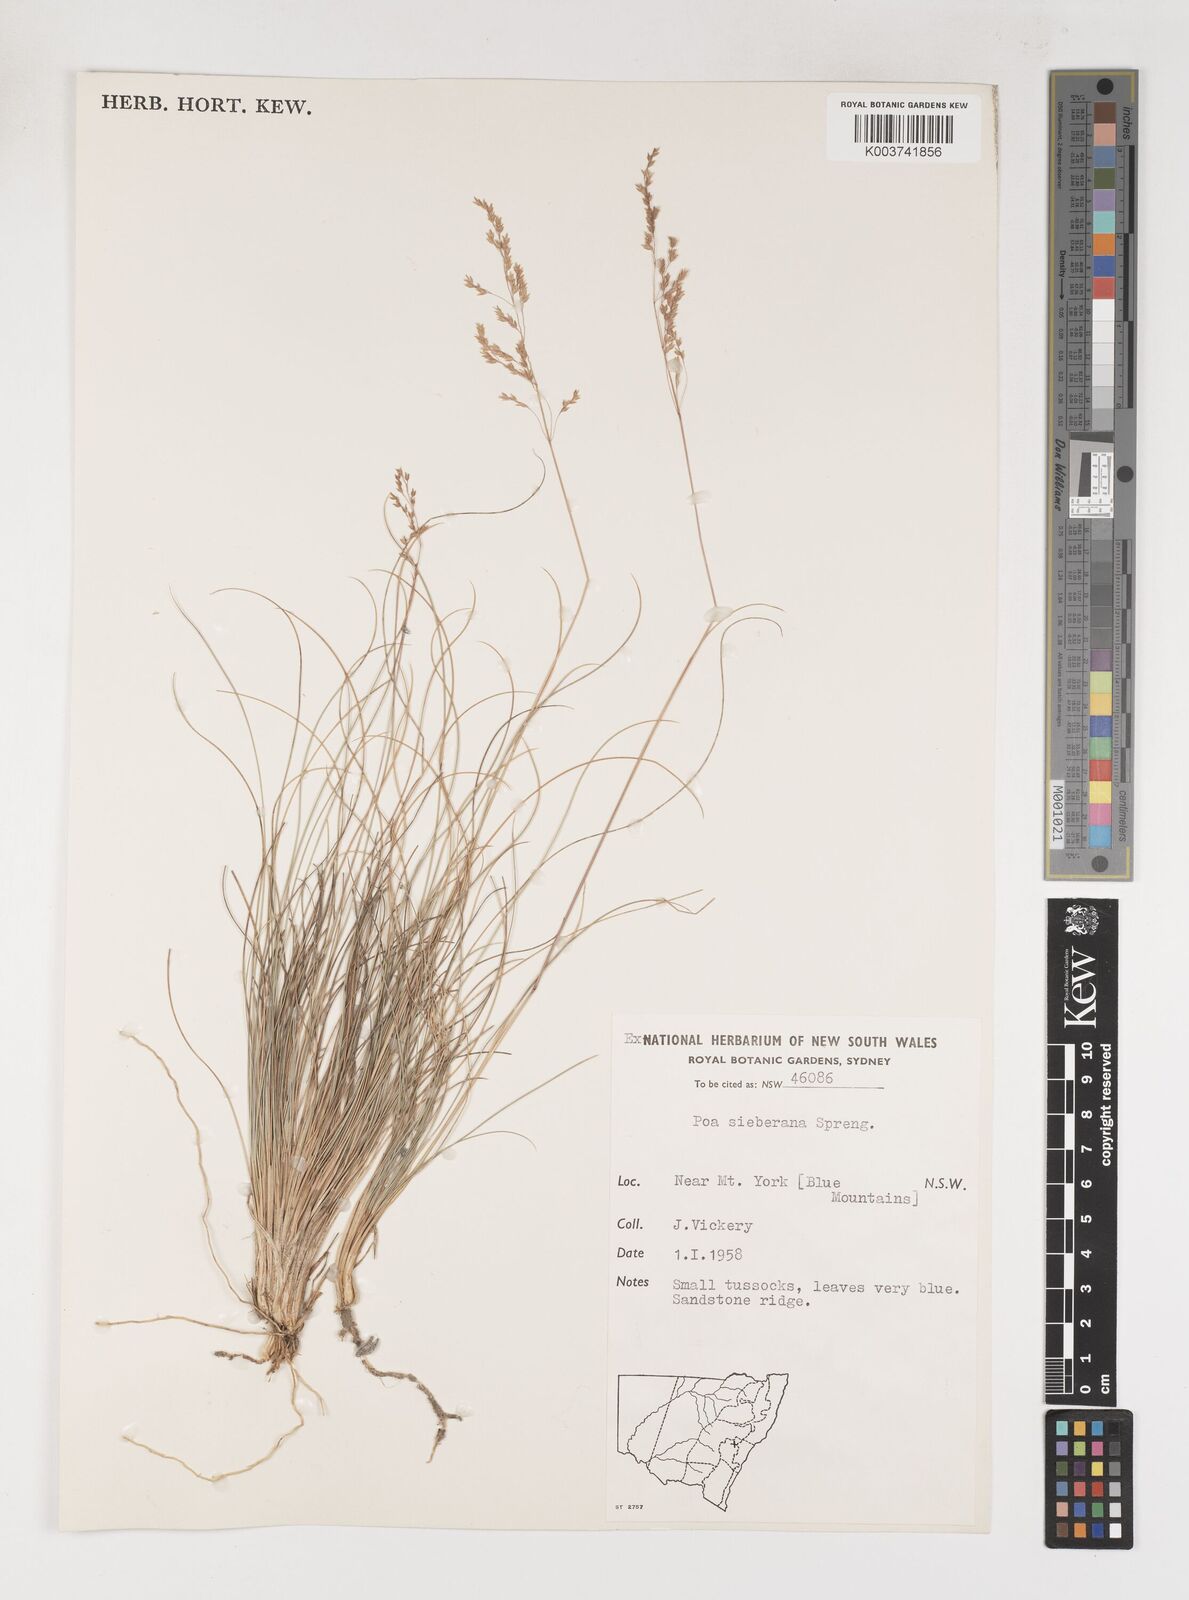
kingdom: Plantae
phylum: Tracheophyta
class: Liliopsida
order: Poales
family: Poaceae
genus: Poa
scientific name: Poa sieberiana
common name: Tussock poa
